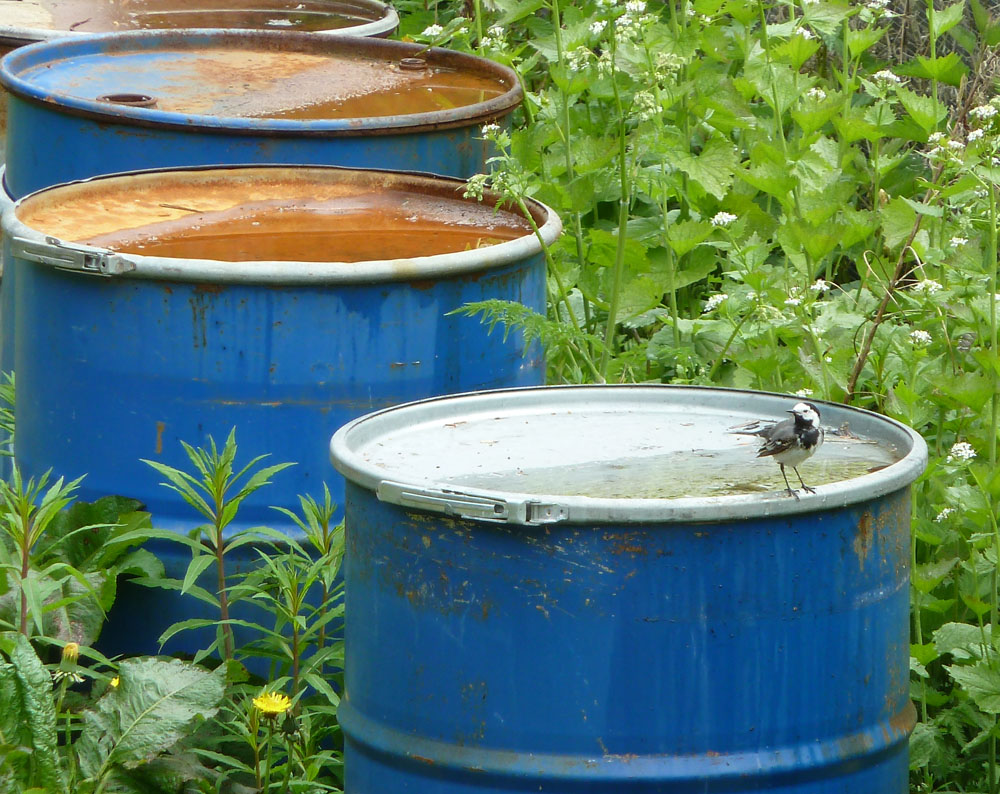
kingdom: Animalia
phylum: Chordata
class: Aves
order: Passeriformes
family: Motacillidae
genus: Motacilla
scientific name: Motacilla alba
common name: White wagtail
